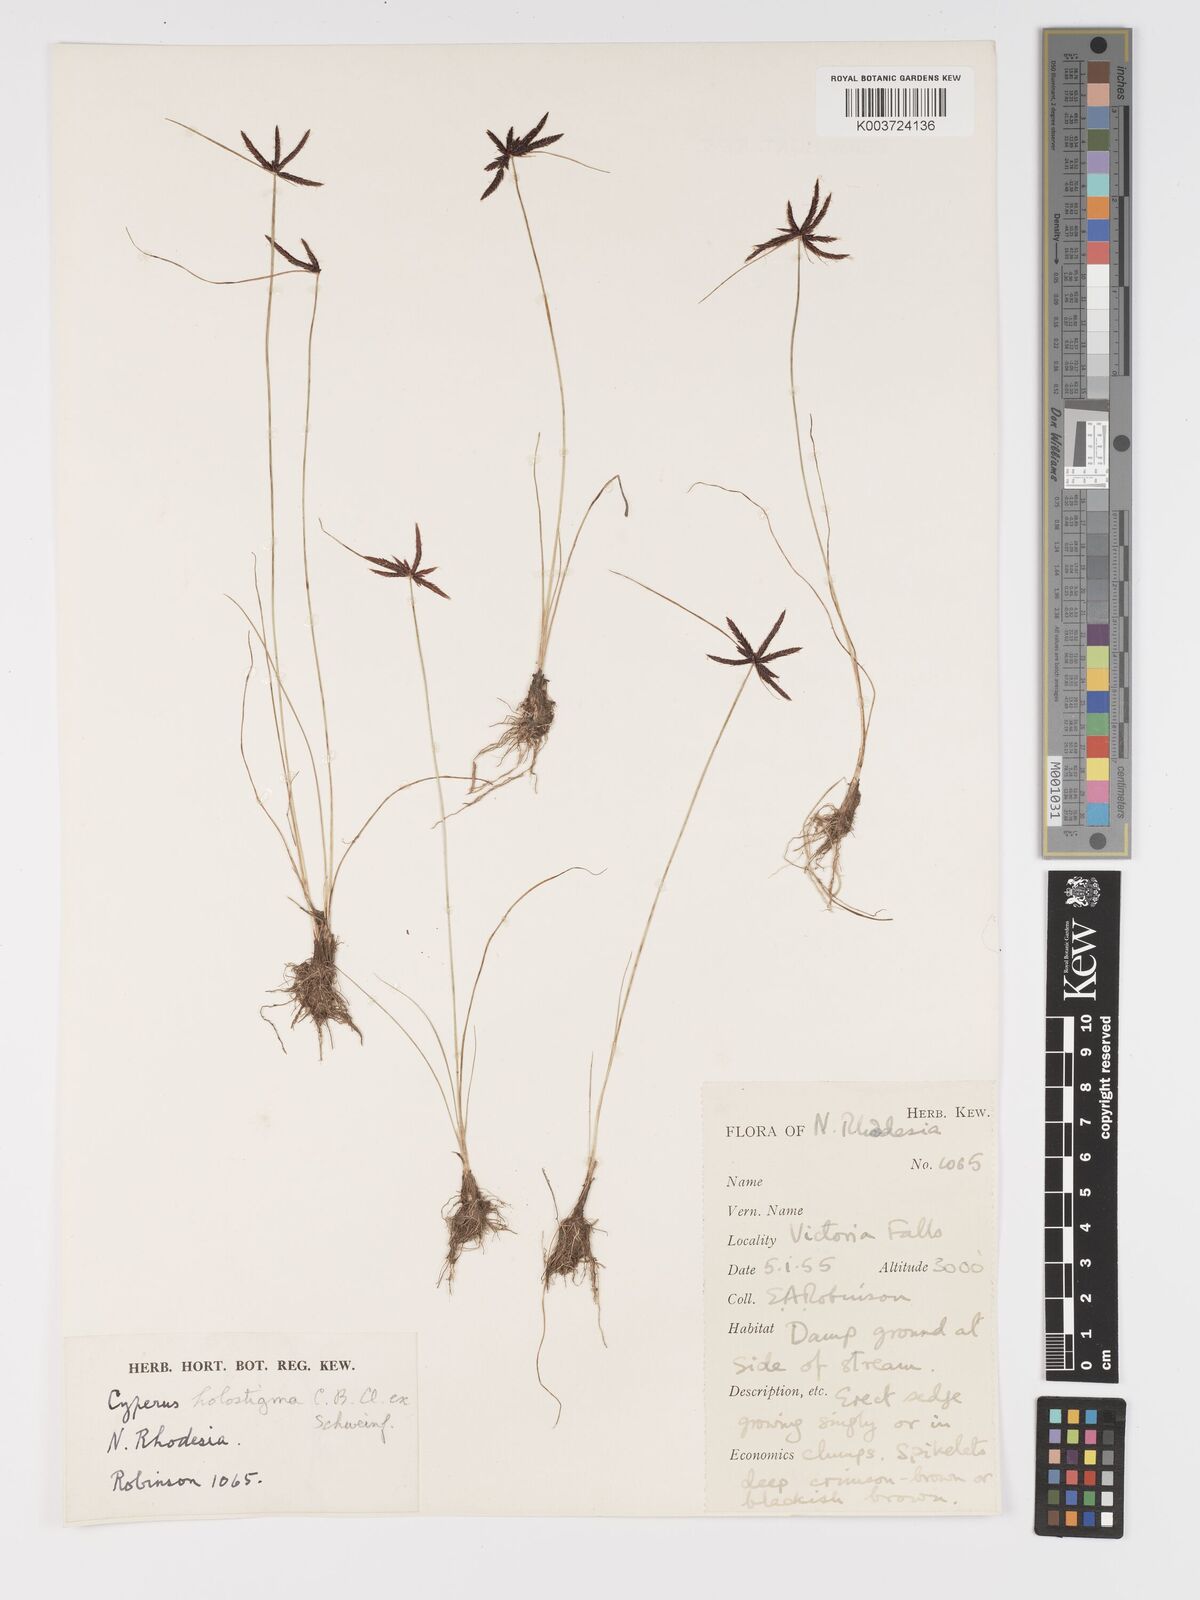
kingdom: Plantae
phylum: Tracheophyta
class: Liliopsida
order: Poales
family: Cyperaceae
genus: Cyperus
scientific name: Cyperus holostigma
